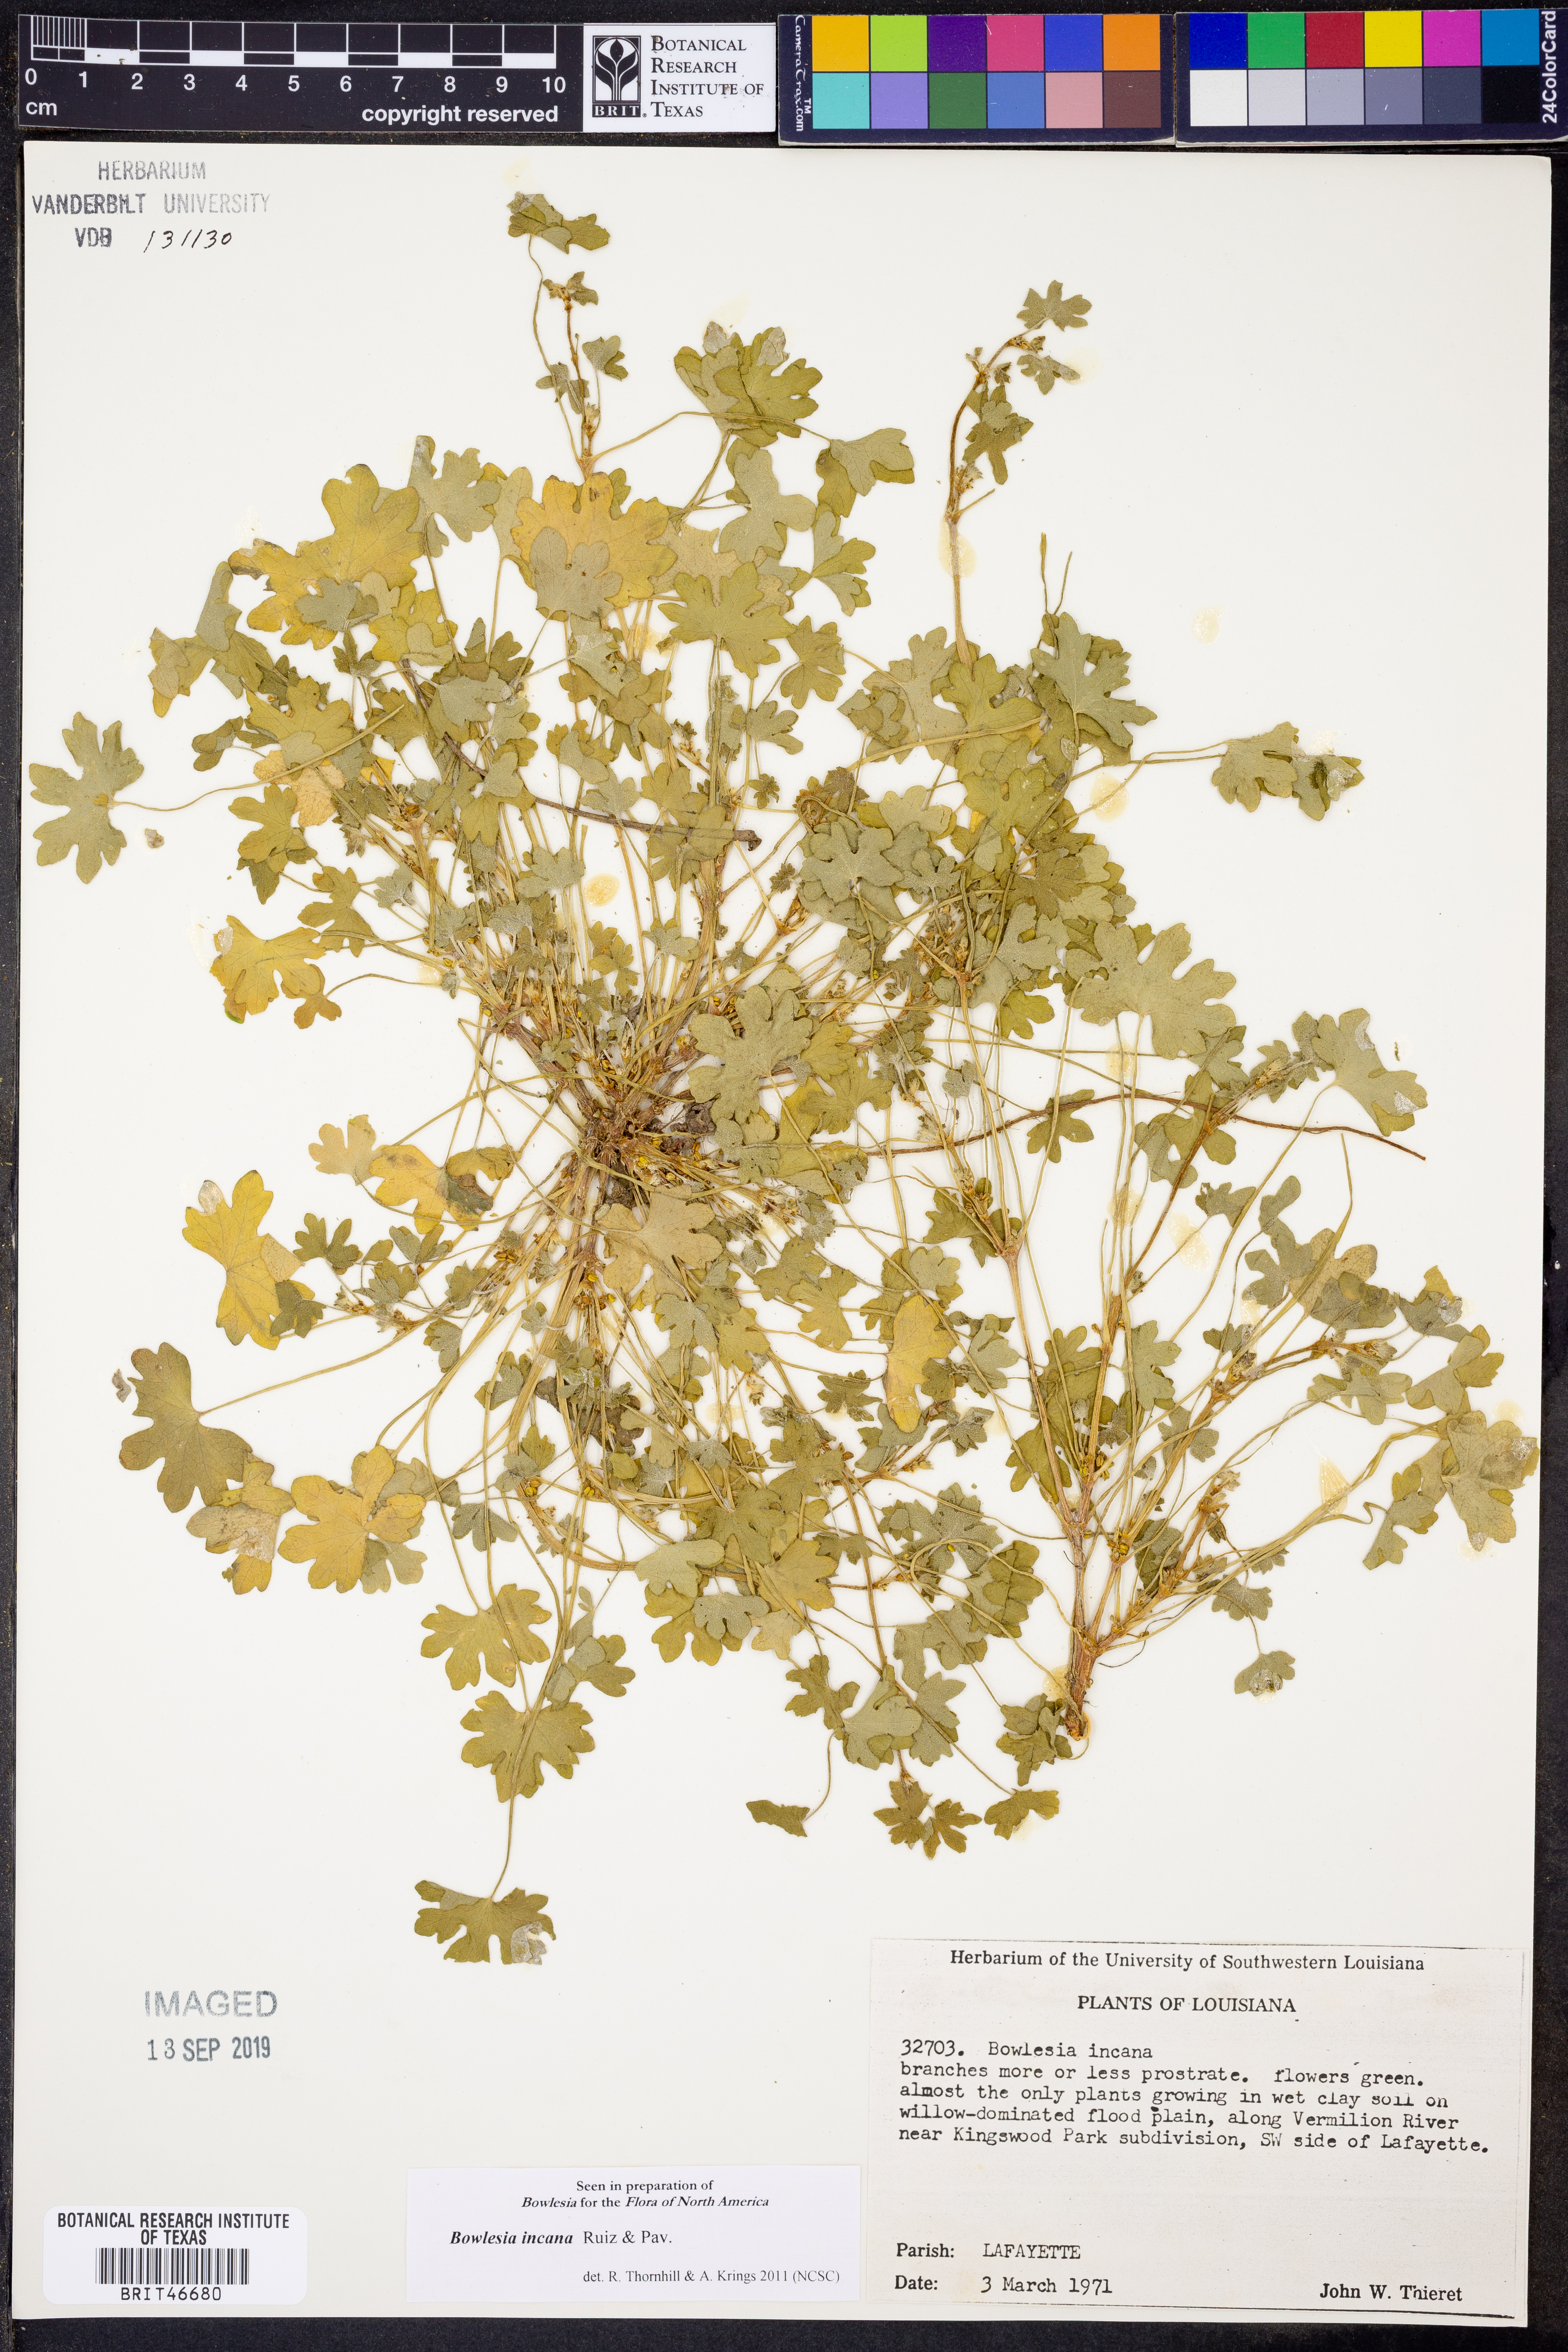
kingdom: Plantae
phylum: Tracheophyta
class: Magnoliopsida
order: Apiales
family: Apiaceae
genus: Bowlesia
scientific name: Bowlesia incana
